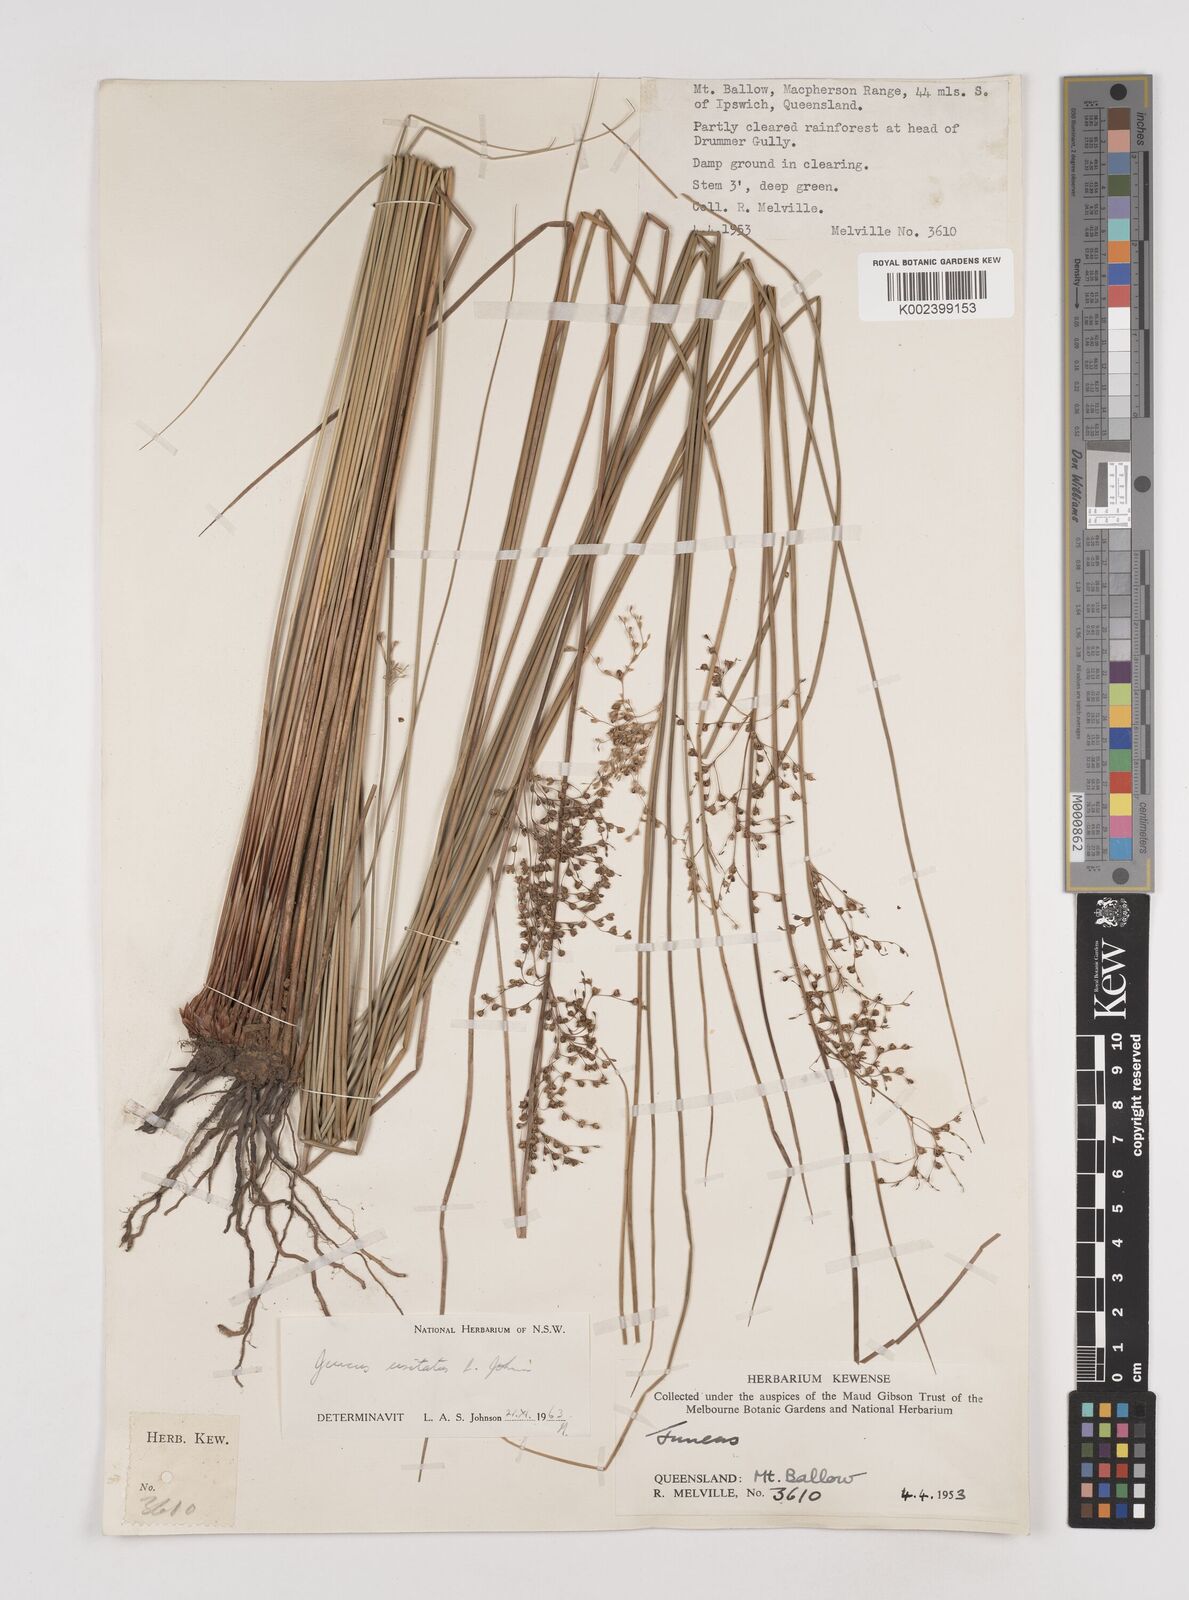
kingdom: Plantae
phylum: Tracheophyta
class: Liliopsida
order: Poales
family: Juncaceae
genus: Juncus
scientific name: Juncus usitatus
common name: Rush
